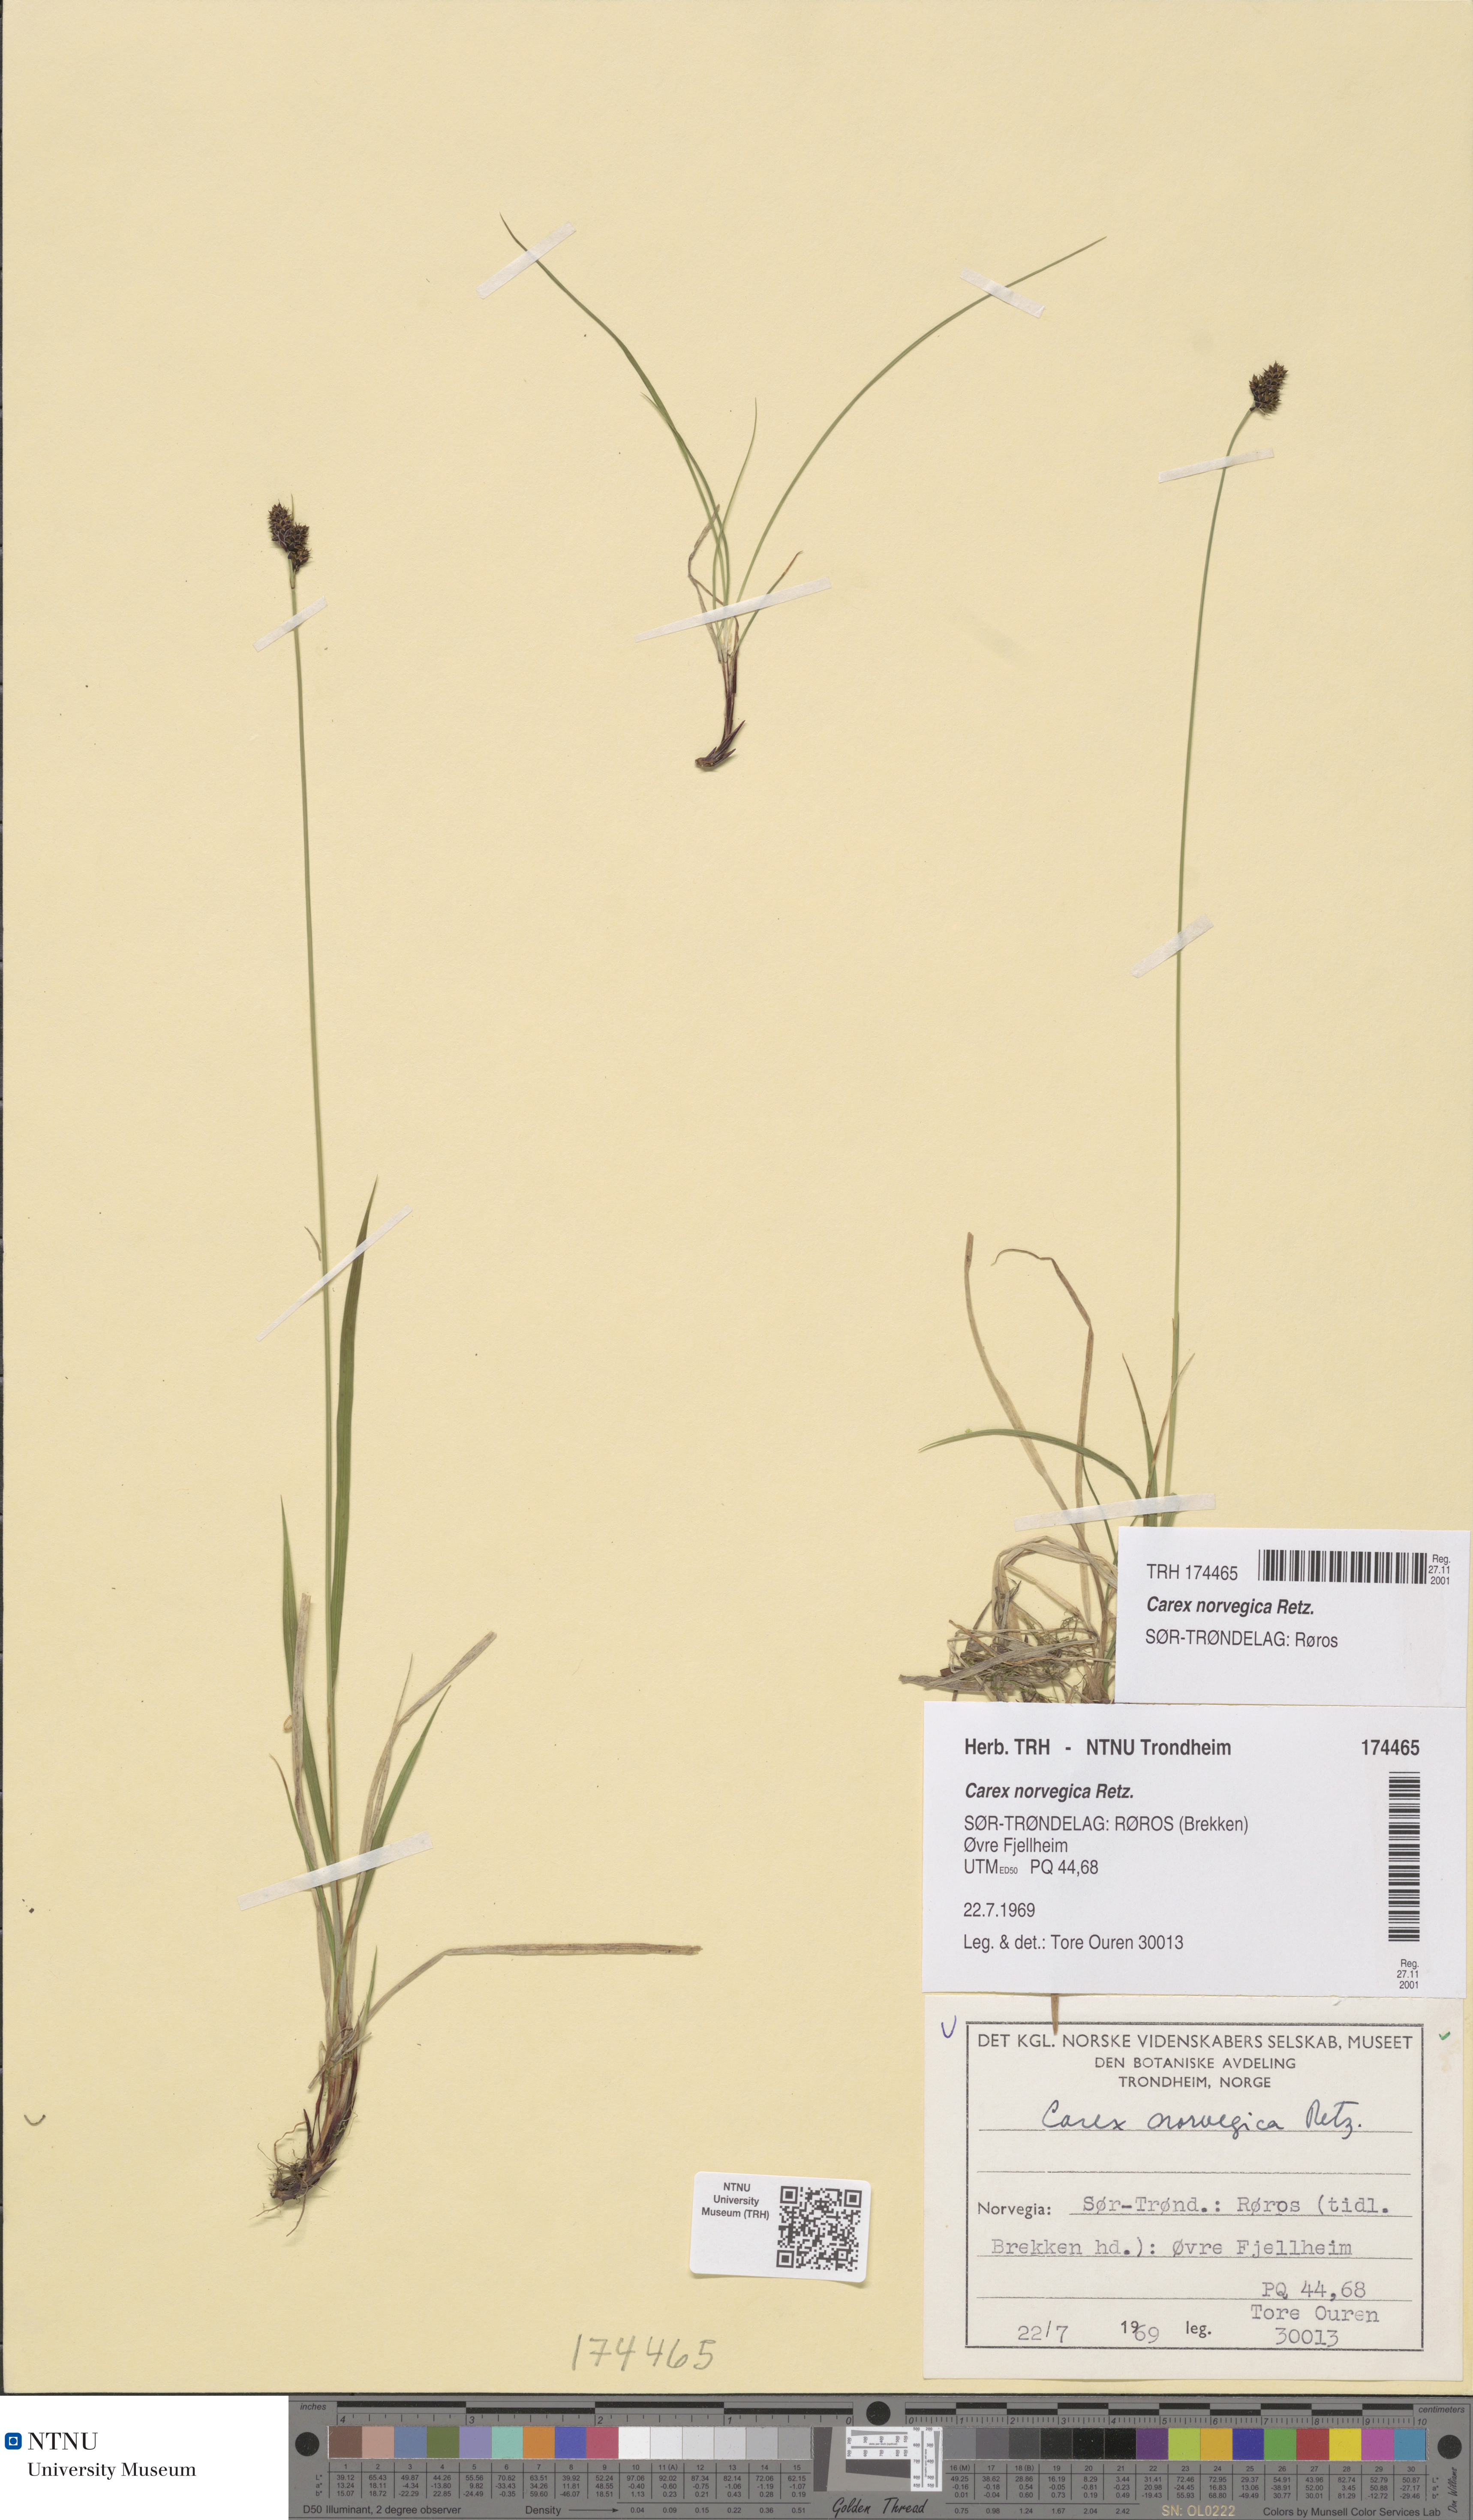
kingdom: Plantae
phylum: Tracheophyta
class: Liliopsida
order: Poales
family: Cyperaceae
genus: Carex
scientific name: Carex norvegica
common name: Close-headed alpine-sedge
